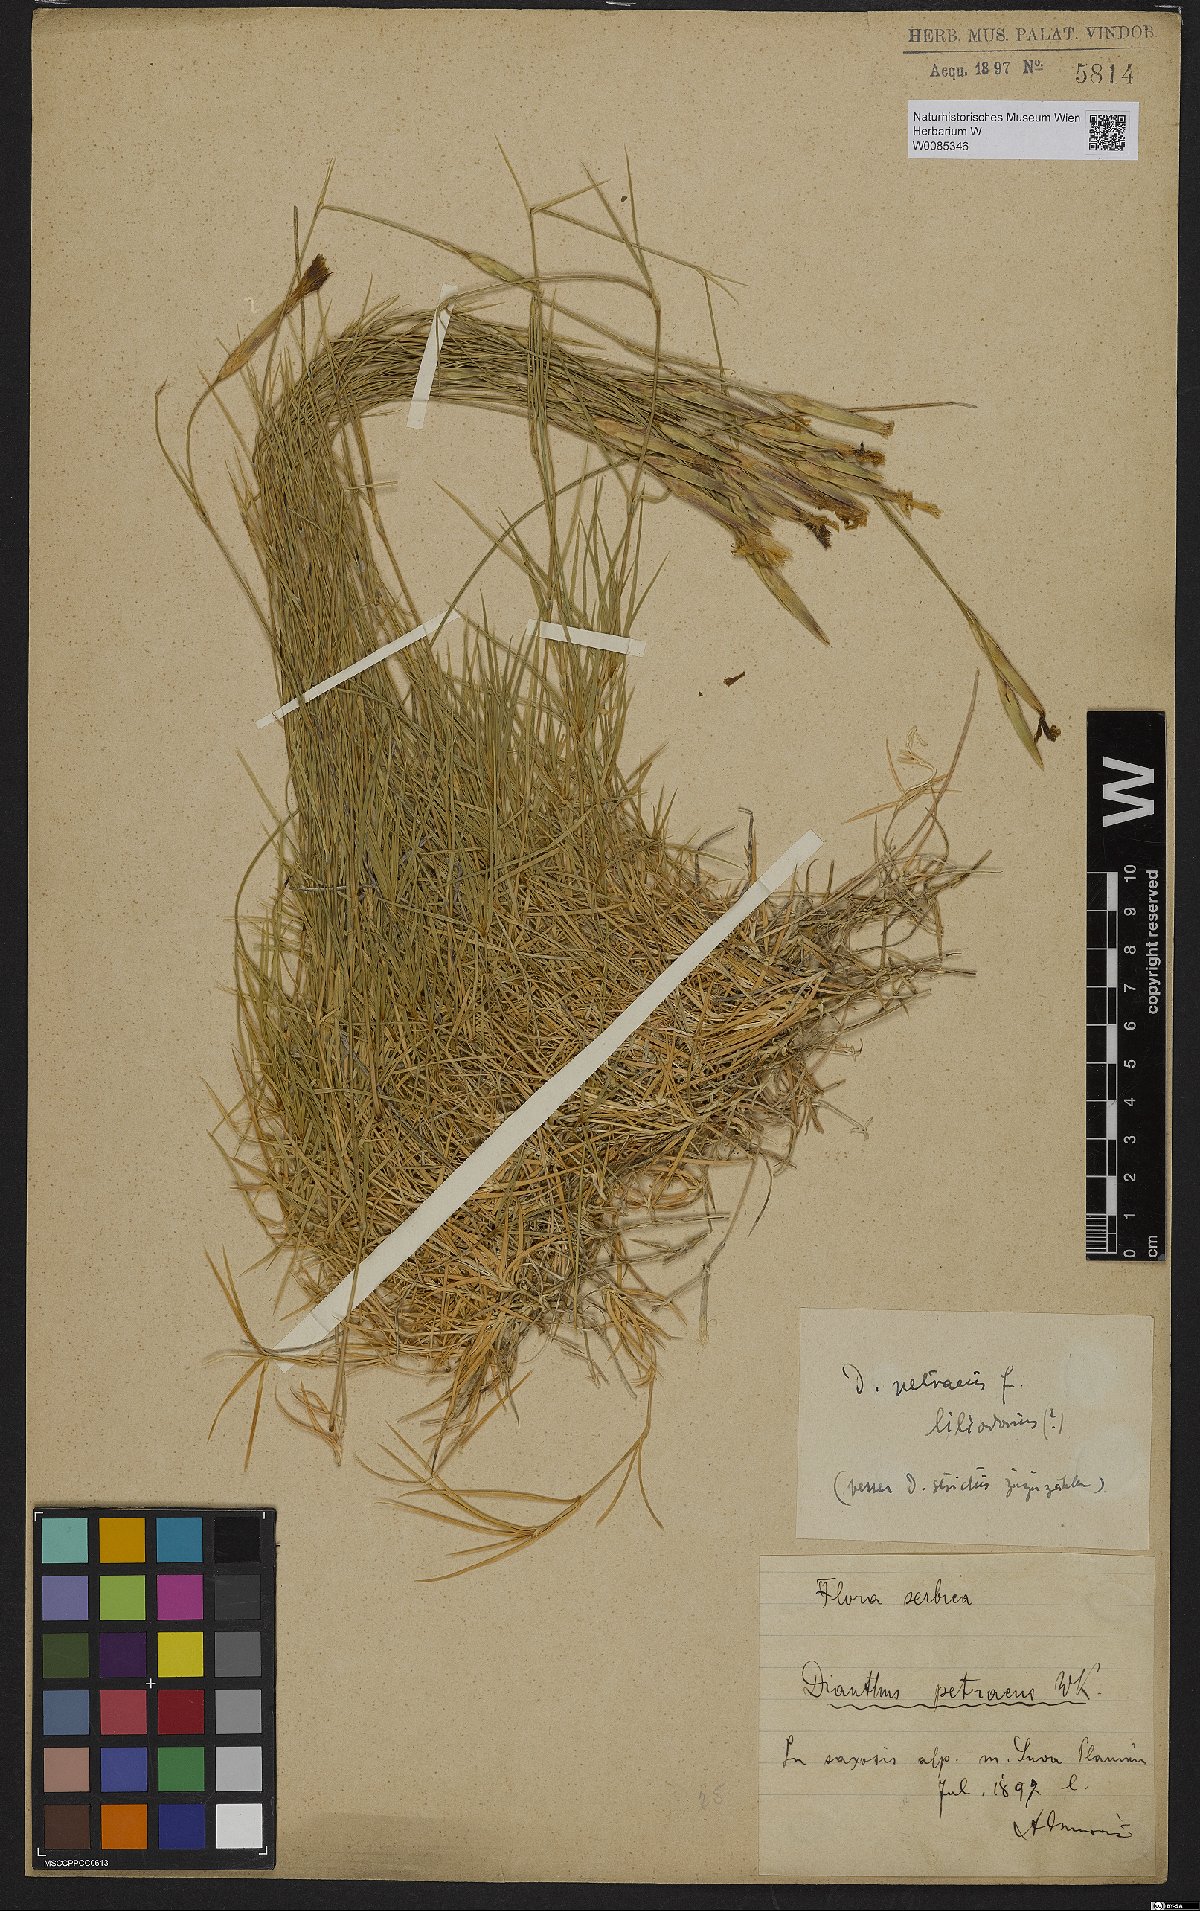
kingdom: Plantae
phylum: Tracheophyta
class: Magnoliopsida
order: Caryophyllales
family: Caryophyllaceae
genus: Dianthus
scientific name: Dianthus petraeus
